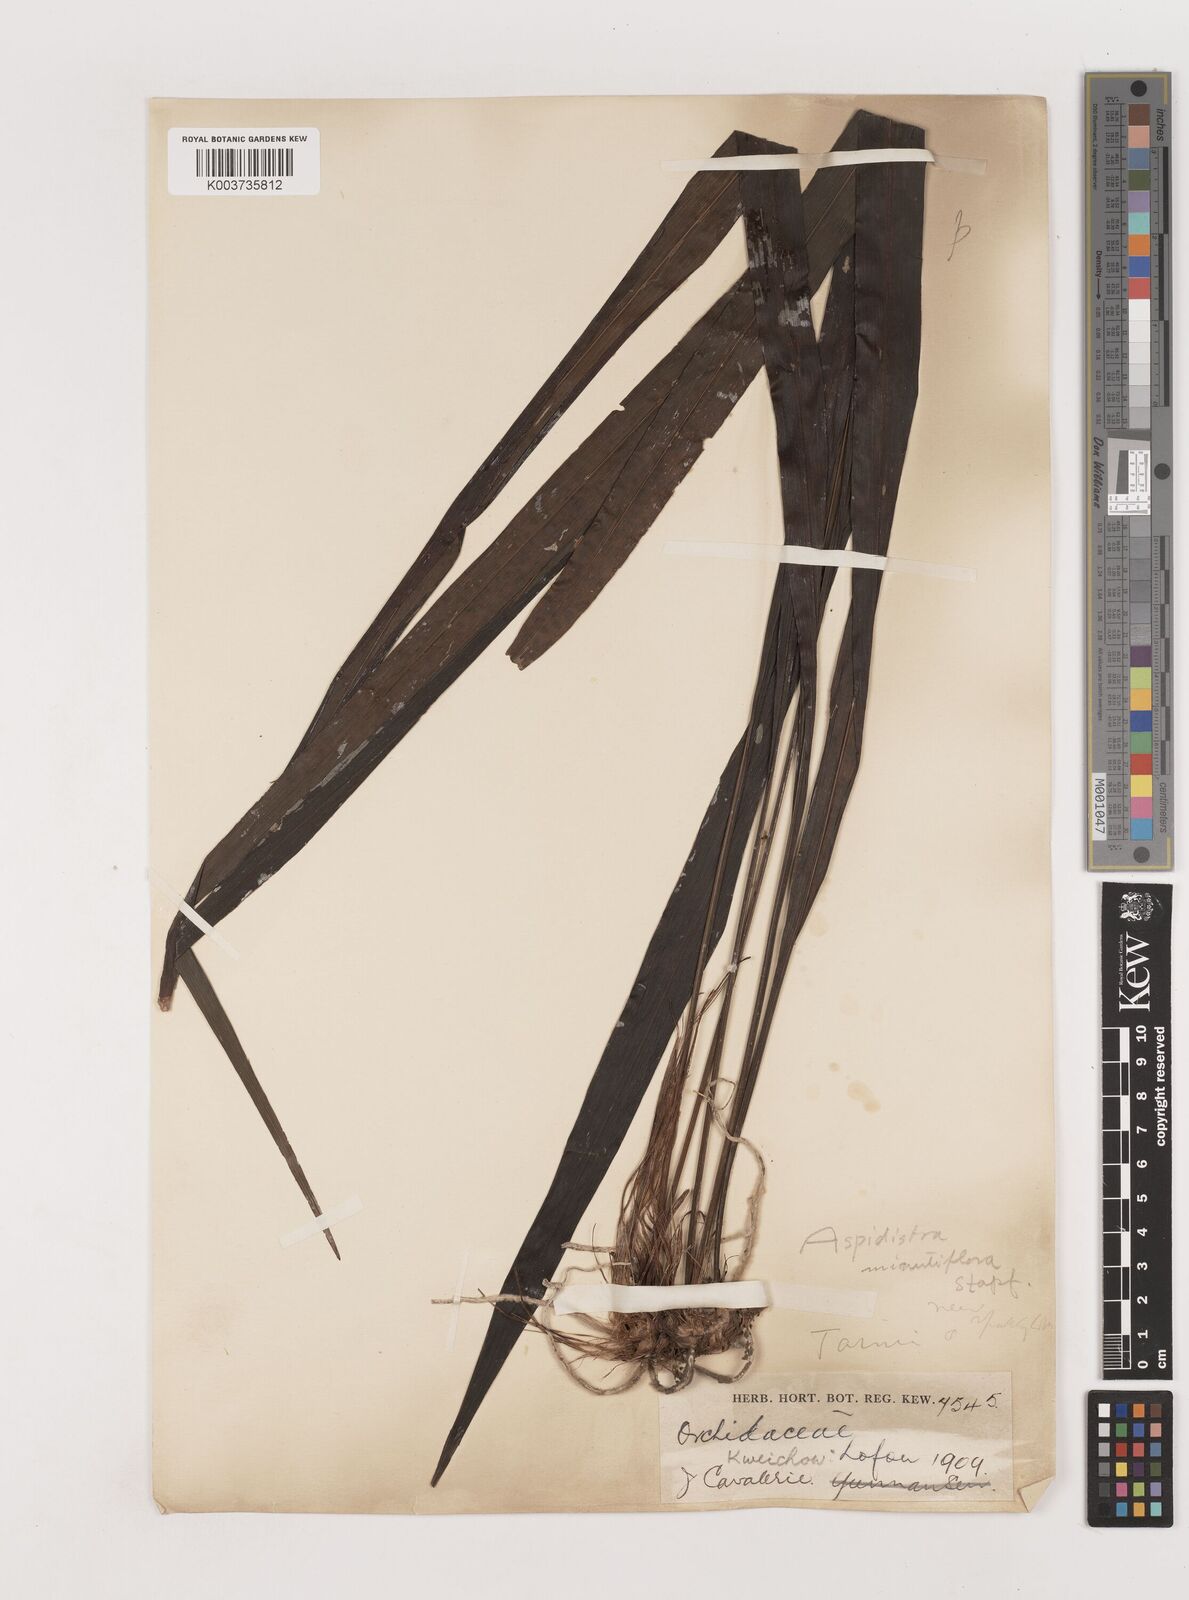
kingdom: Plantae
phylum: Tracheophyta
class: Liliopsida
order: Asparagales
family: Asparagaceae
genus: Aspidistra
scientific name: Aspidistra minutiflora
